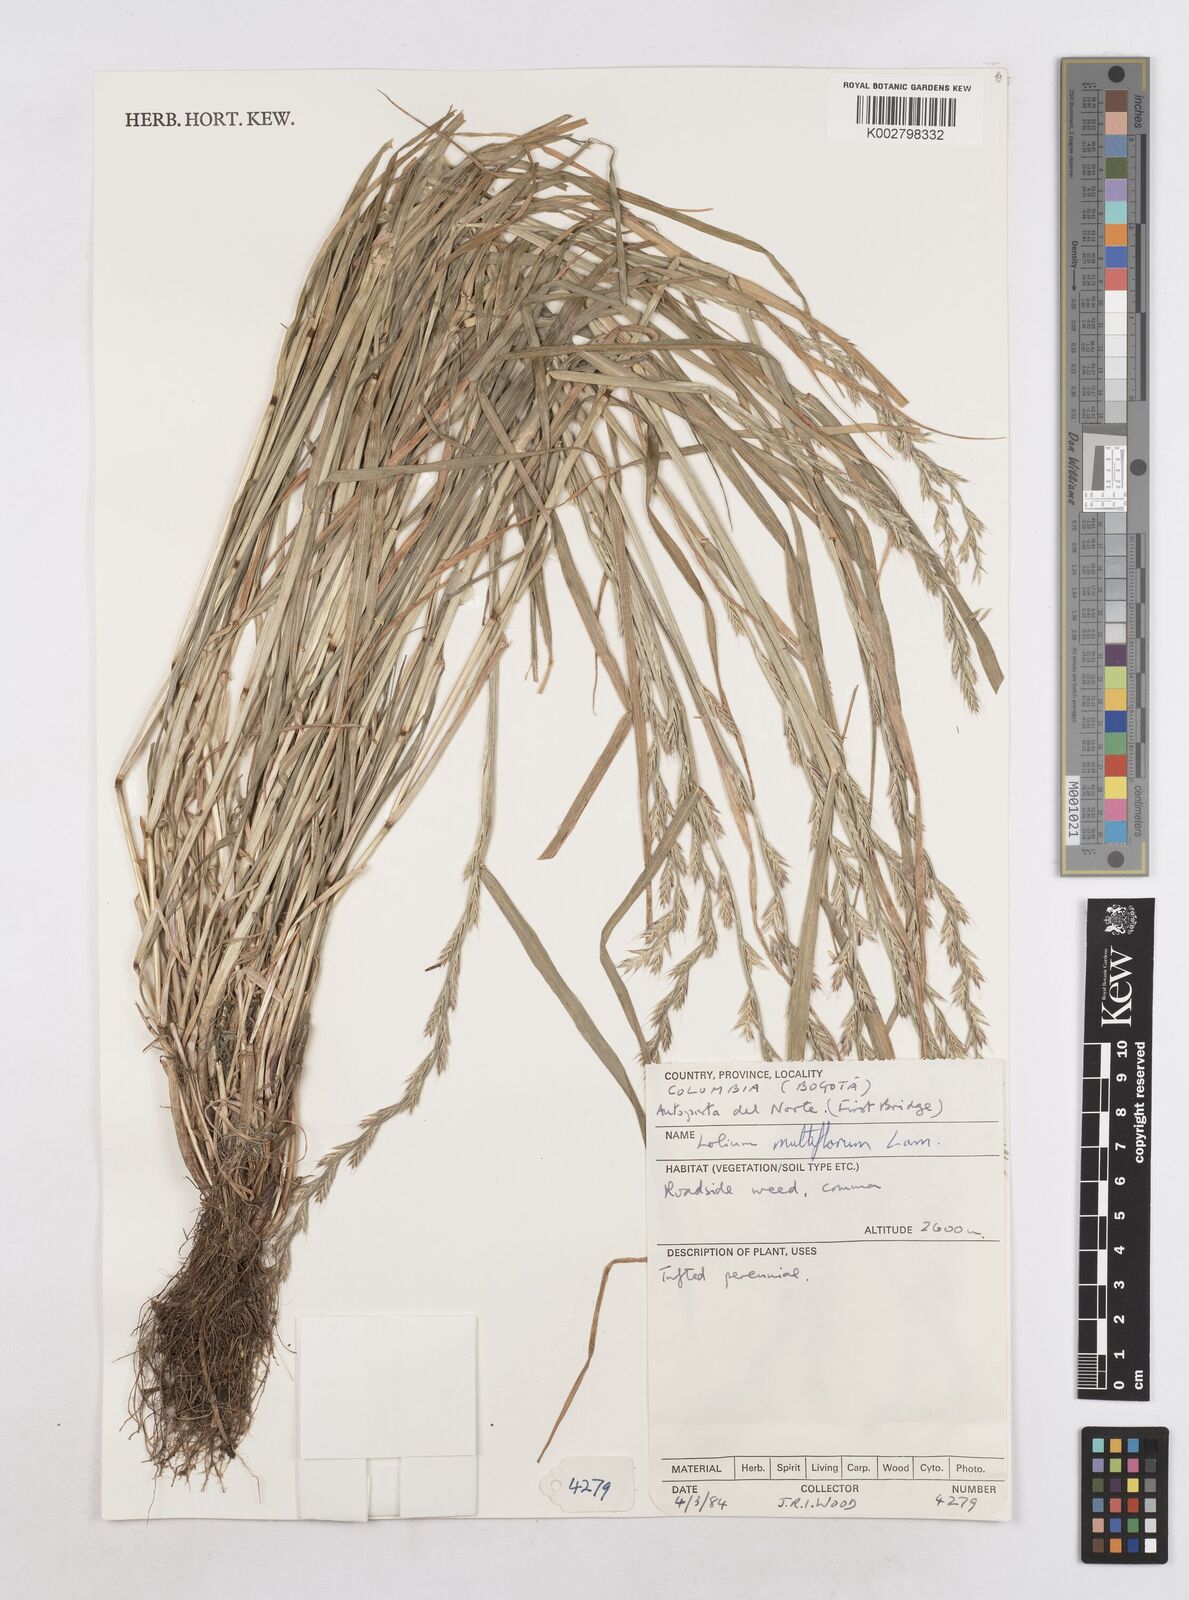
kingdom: Plantae
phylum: Tracheophyta
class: Liliopsida
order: Poales
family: Poaceae
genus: Lolium
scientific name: Lolium multiflorum
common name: Annual ryegrass
